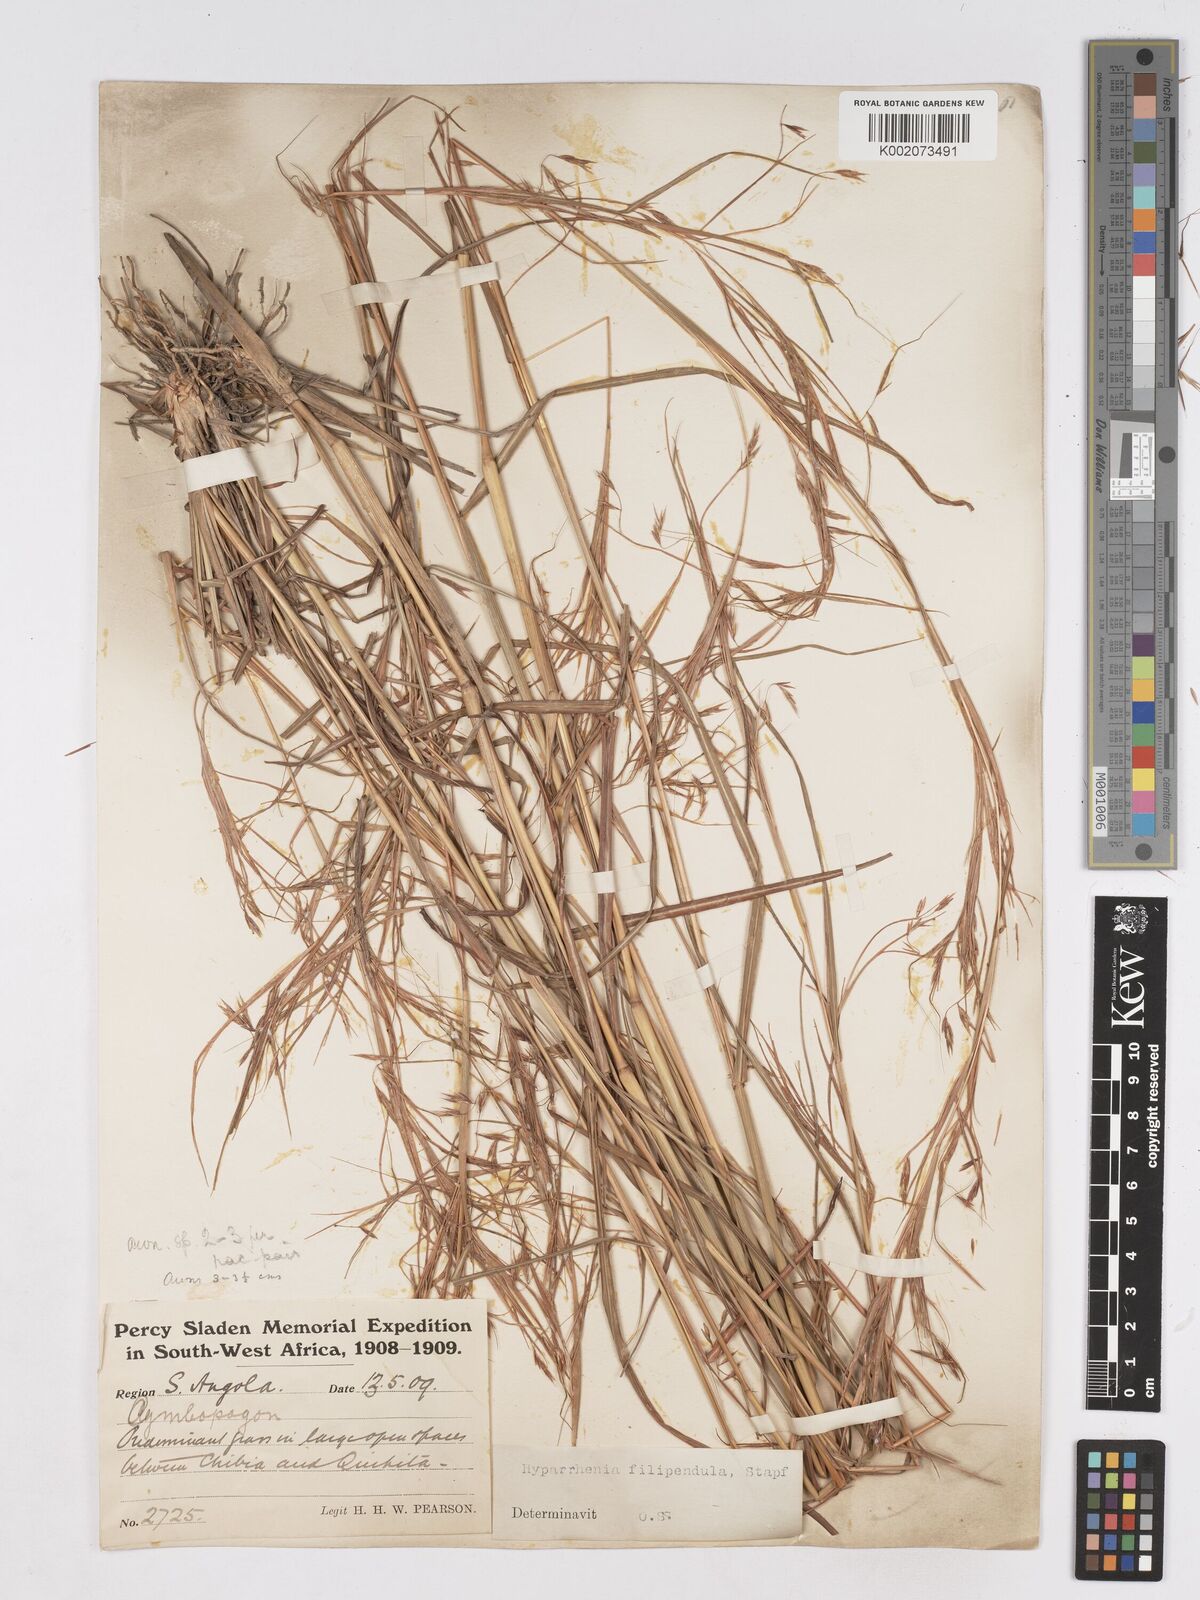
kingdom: Plantae
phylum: Tracheophyta
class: Liliopsida
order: Poales
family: Poaceae
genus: Hyparrhenia
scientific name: Hyparrhenia filipendula
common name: Tambookie grass
